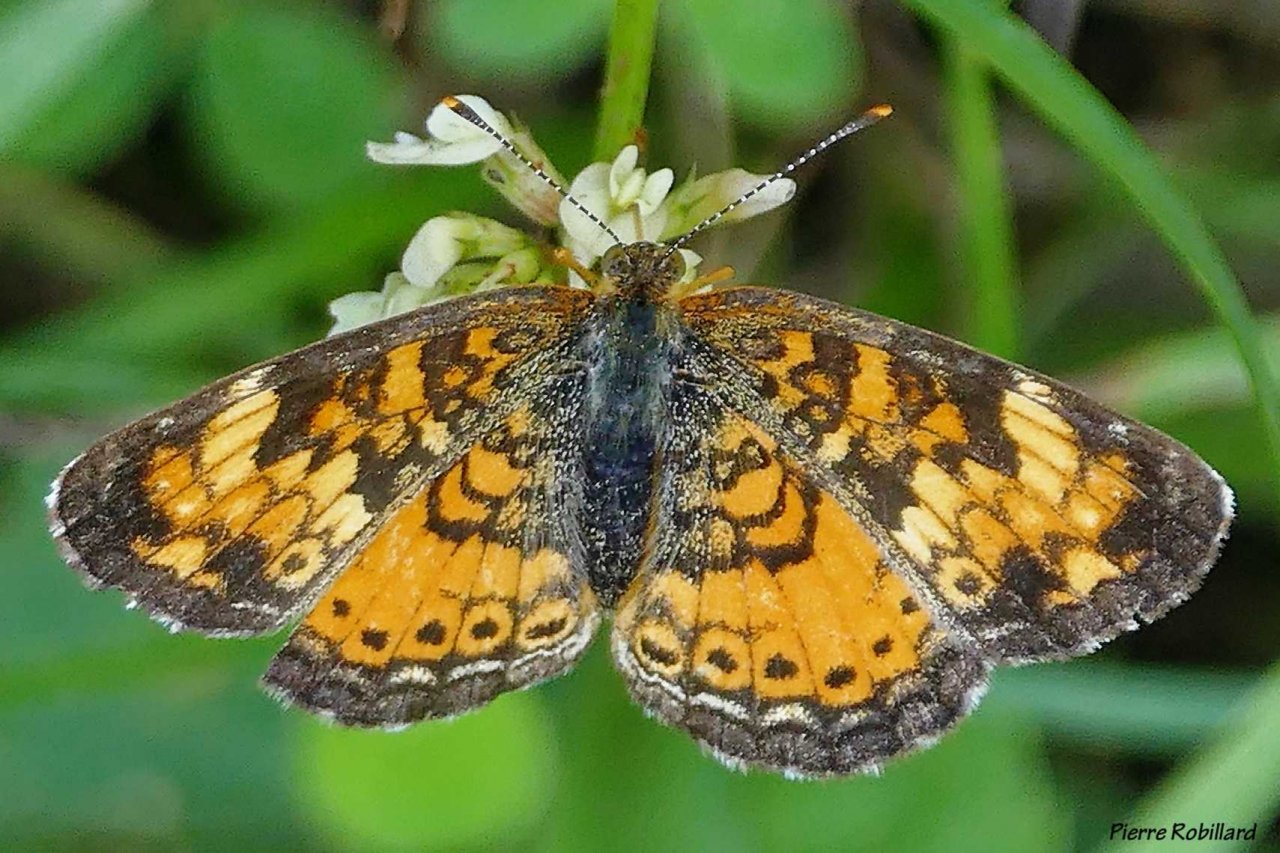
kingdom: Animalia
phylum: Arthropoda
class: Insecta
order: Lepidoptera
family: Nymphalidae
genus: Phyciodes
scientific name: Phyciodes tharos
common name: Northern Crescent
